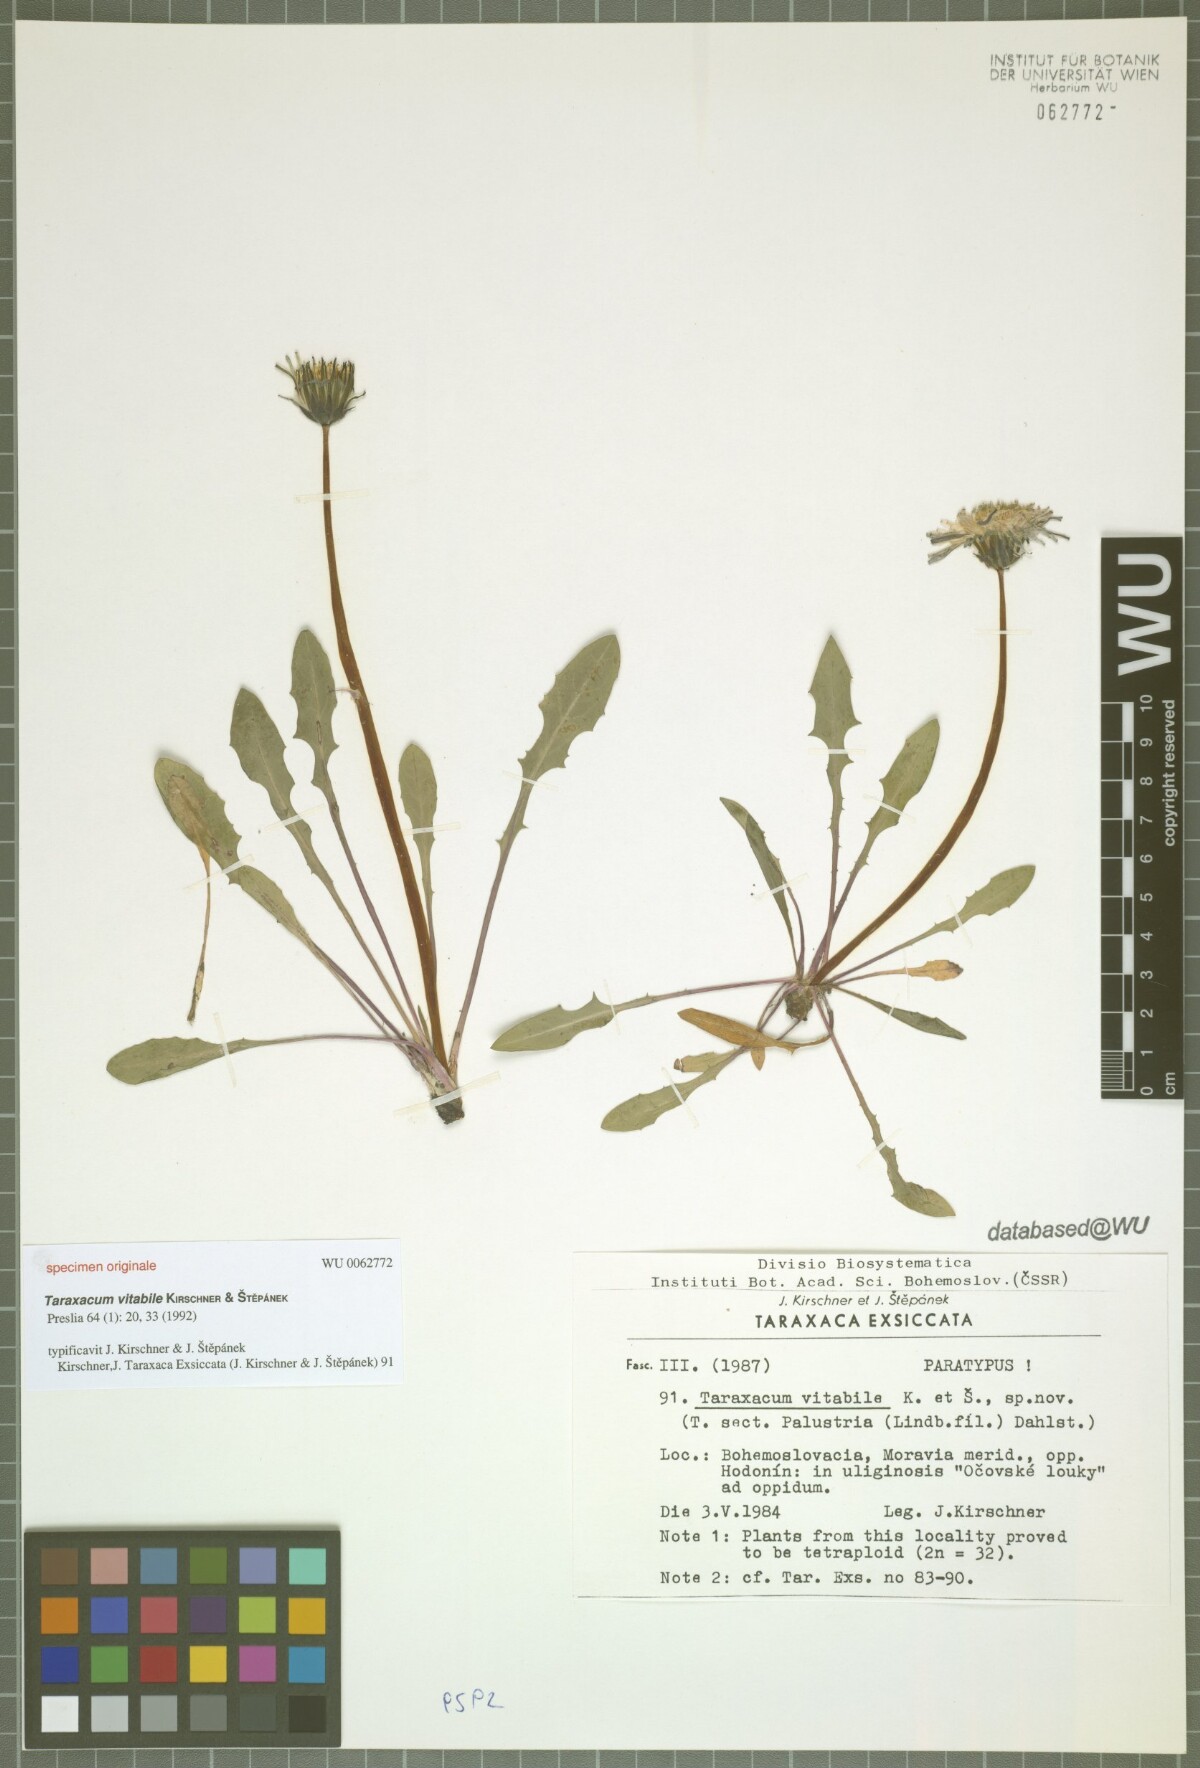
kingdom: Plantae
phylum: Tracheophyta
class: Magnoliopsida
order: Asterales
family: Asteraceae
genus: Taraxacum
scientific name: Taraxacum vindobonense
